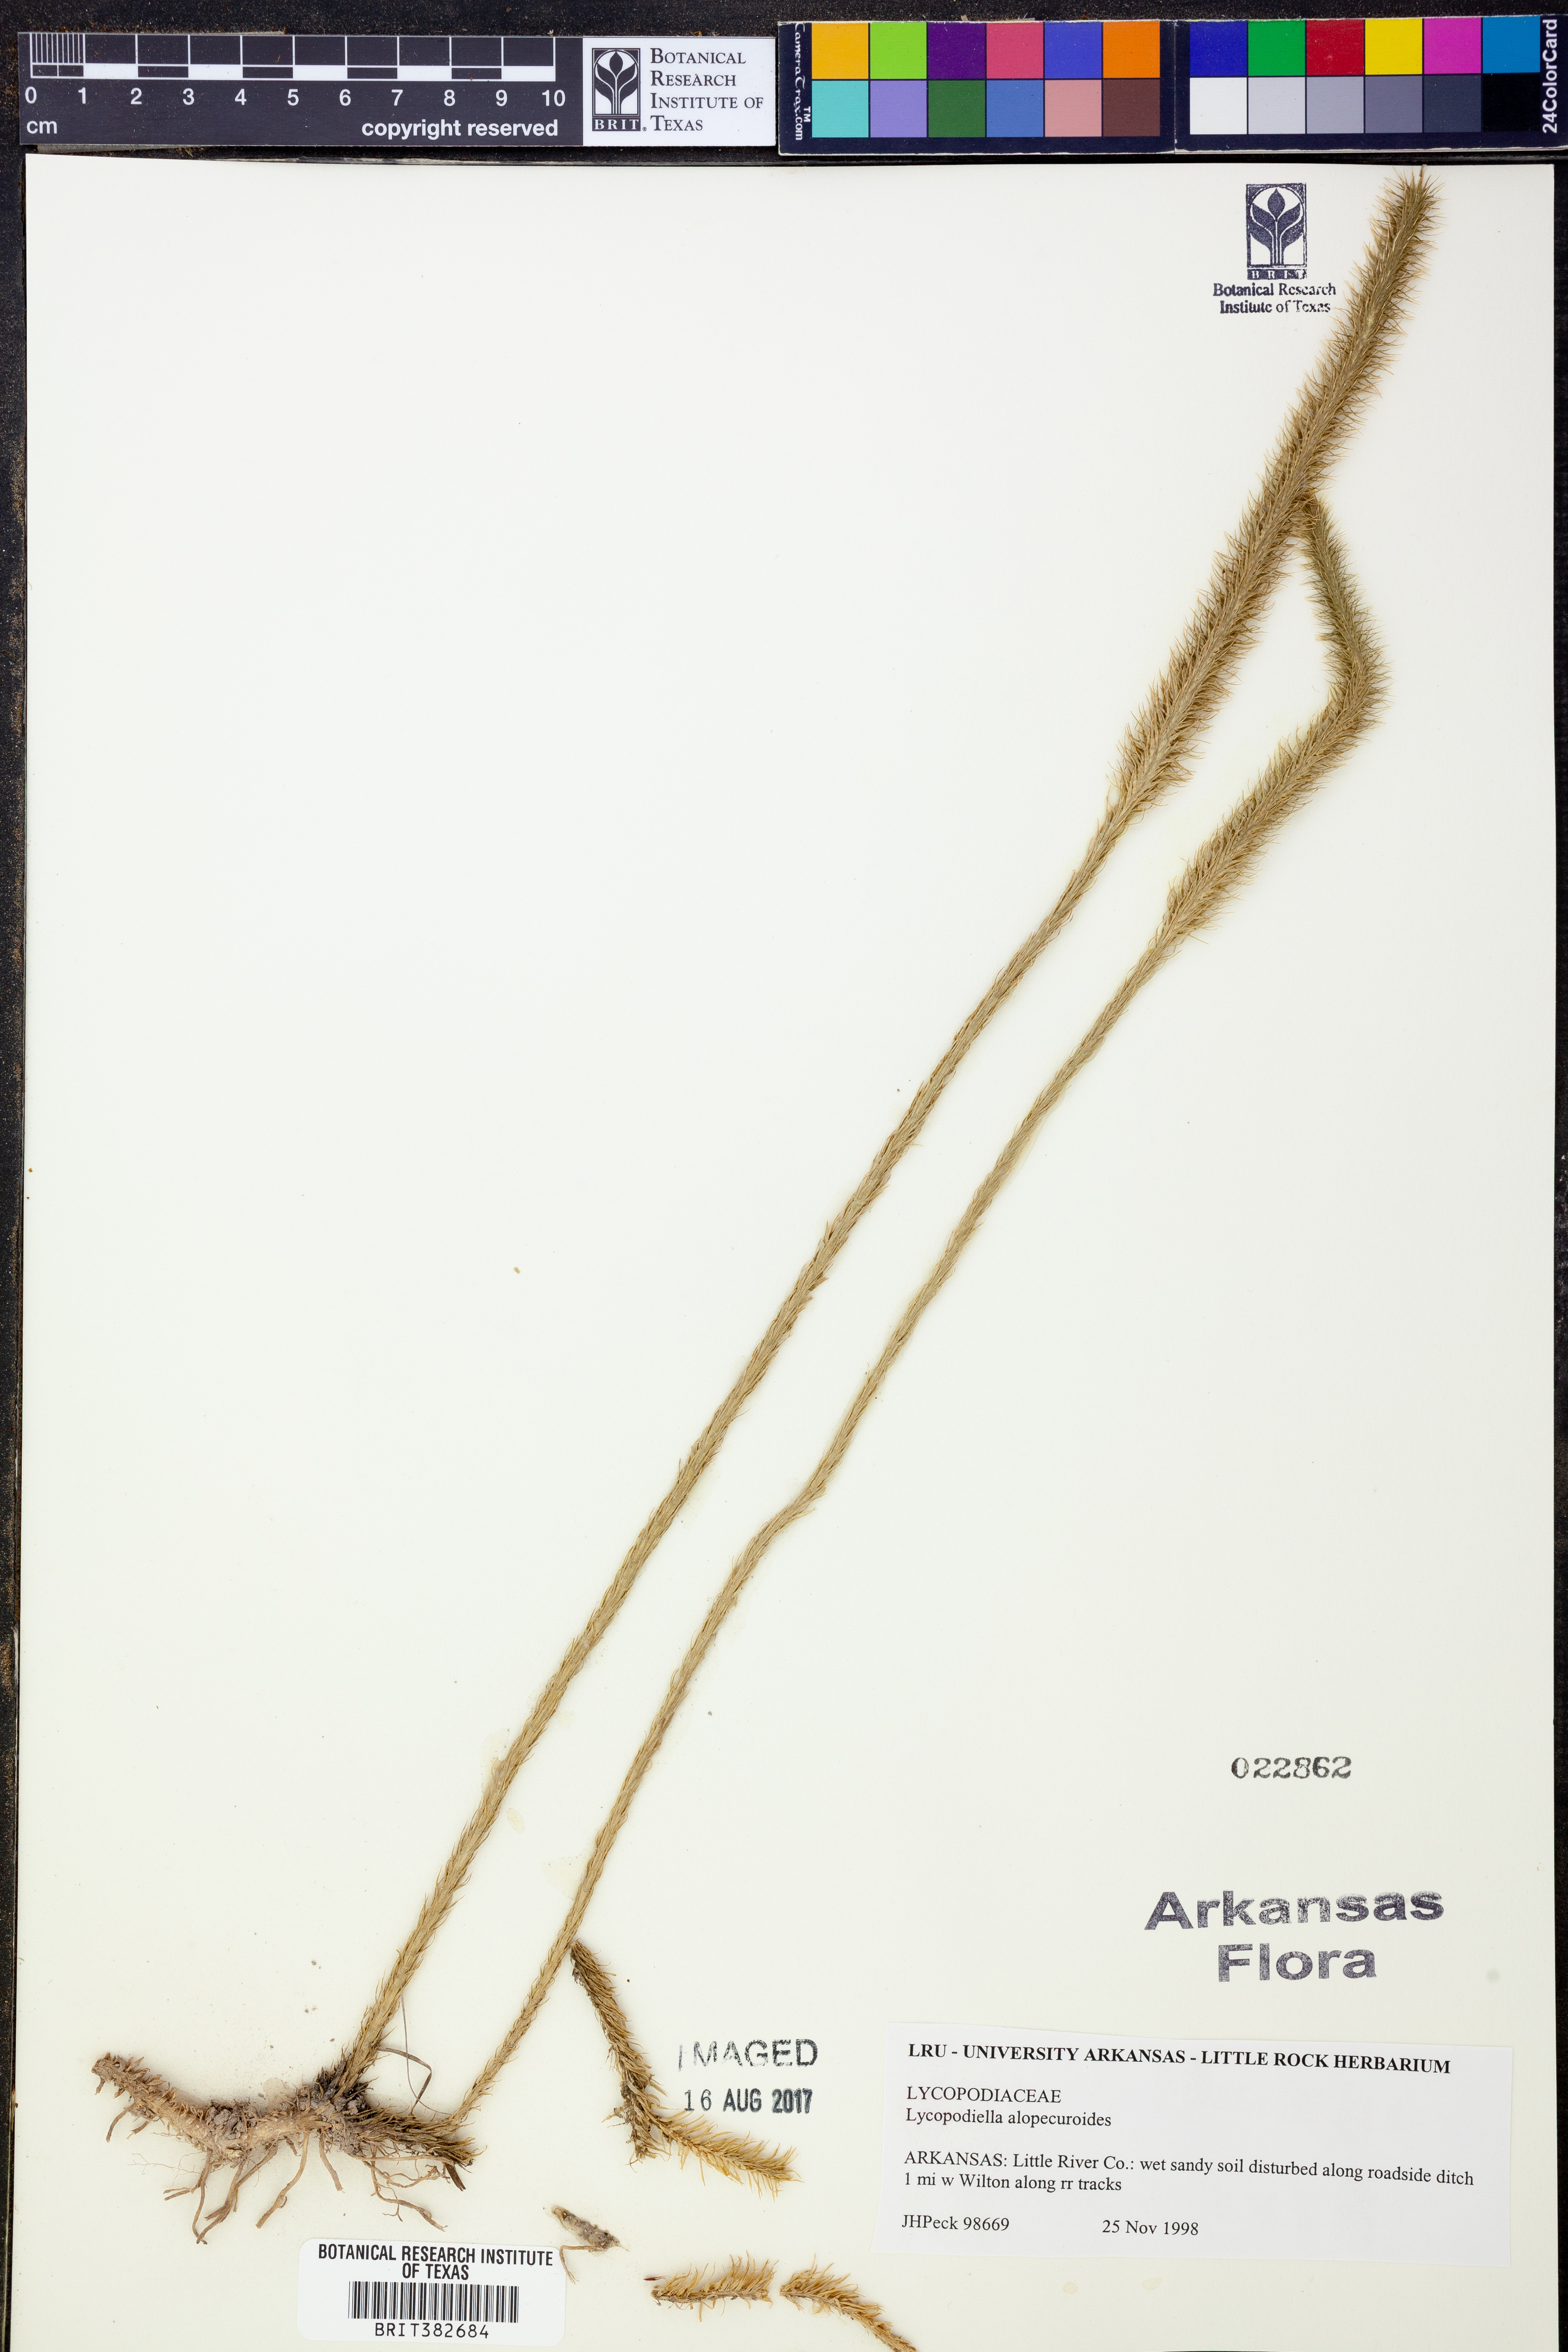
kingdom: Plantae
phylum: Tracheophyta
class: Lycopodiopsida
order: Lycopodiales
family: Lycopodiaceae
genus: Lycopodiella
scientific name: Lycopodiella alopecuroides
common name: Foxtail clubmoss
